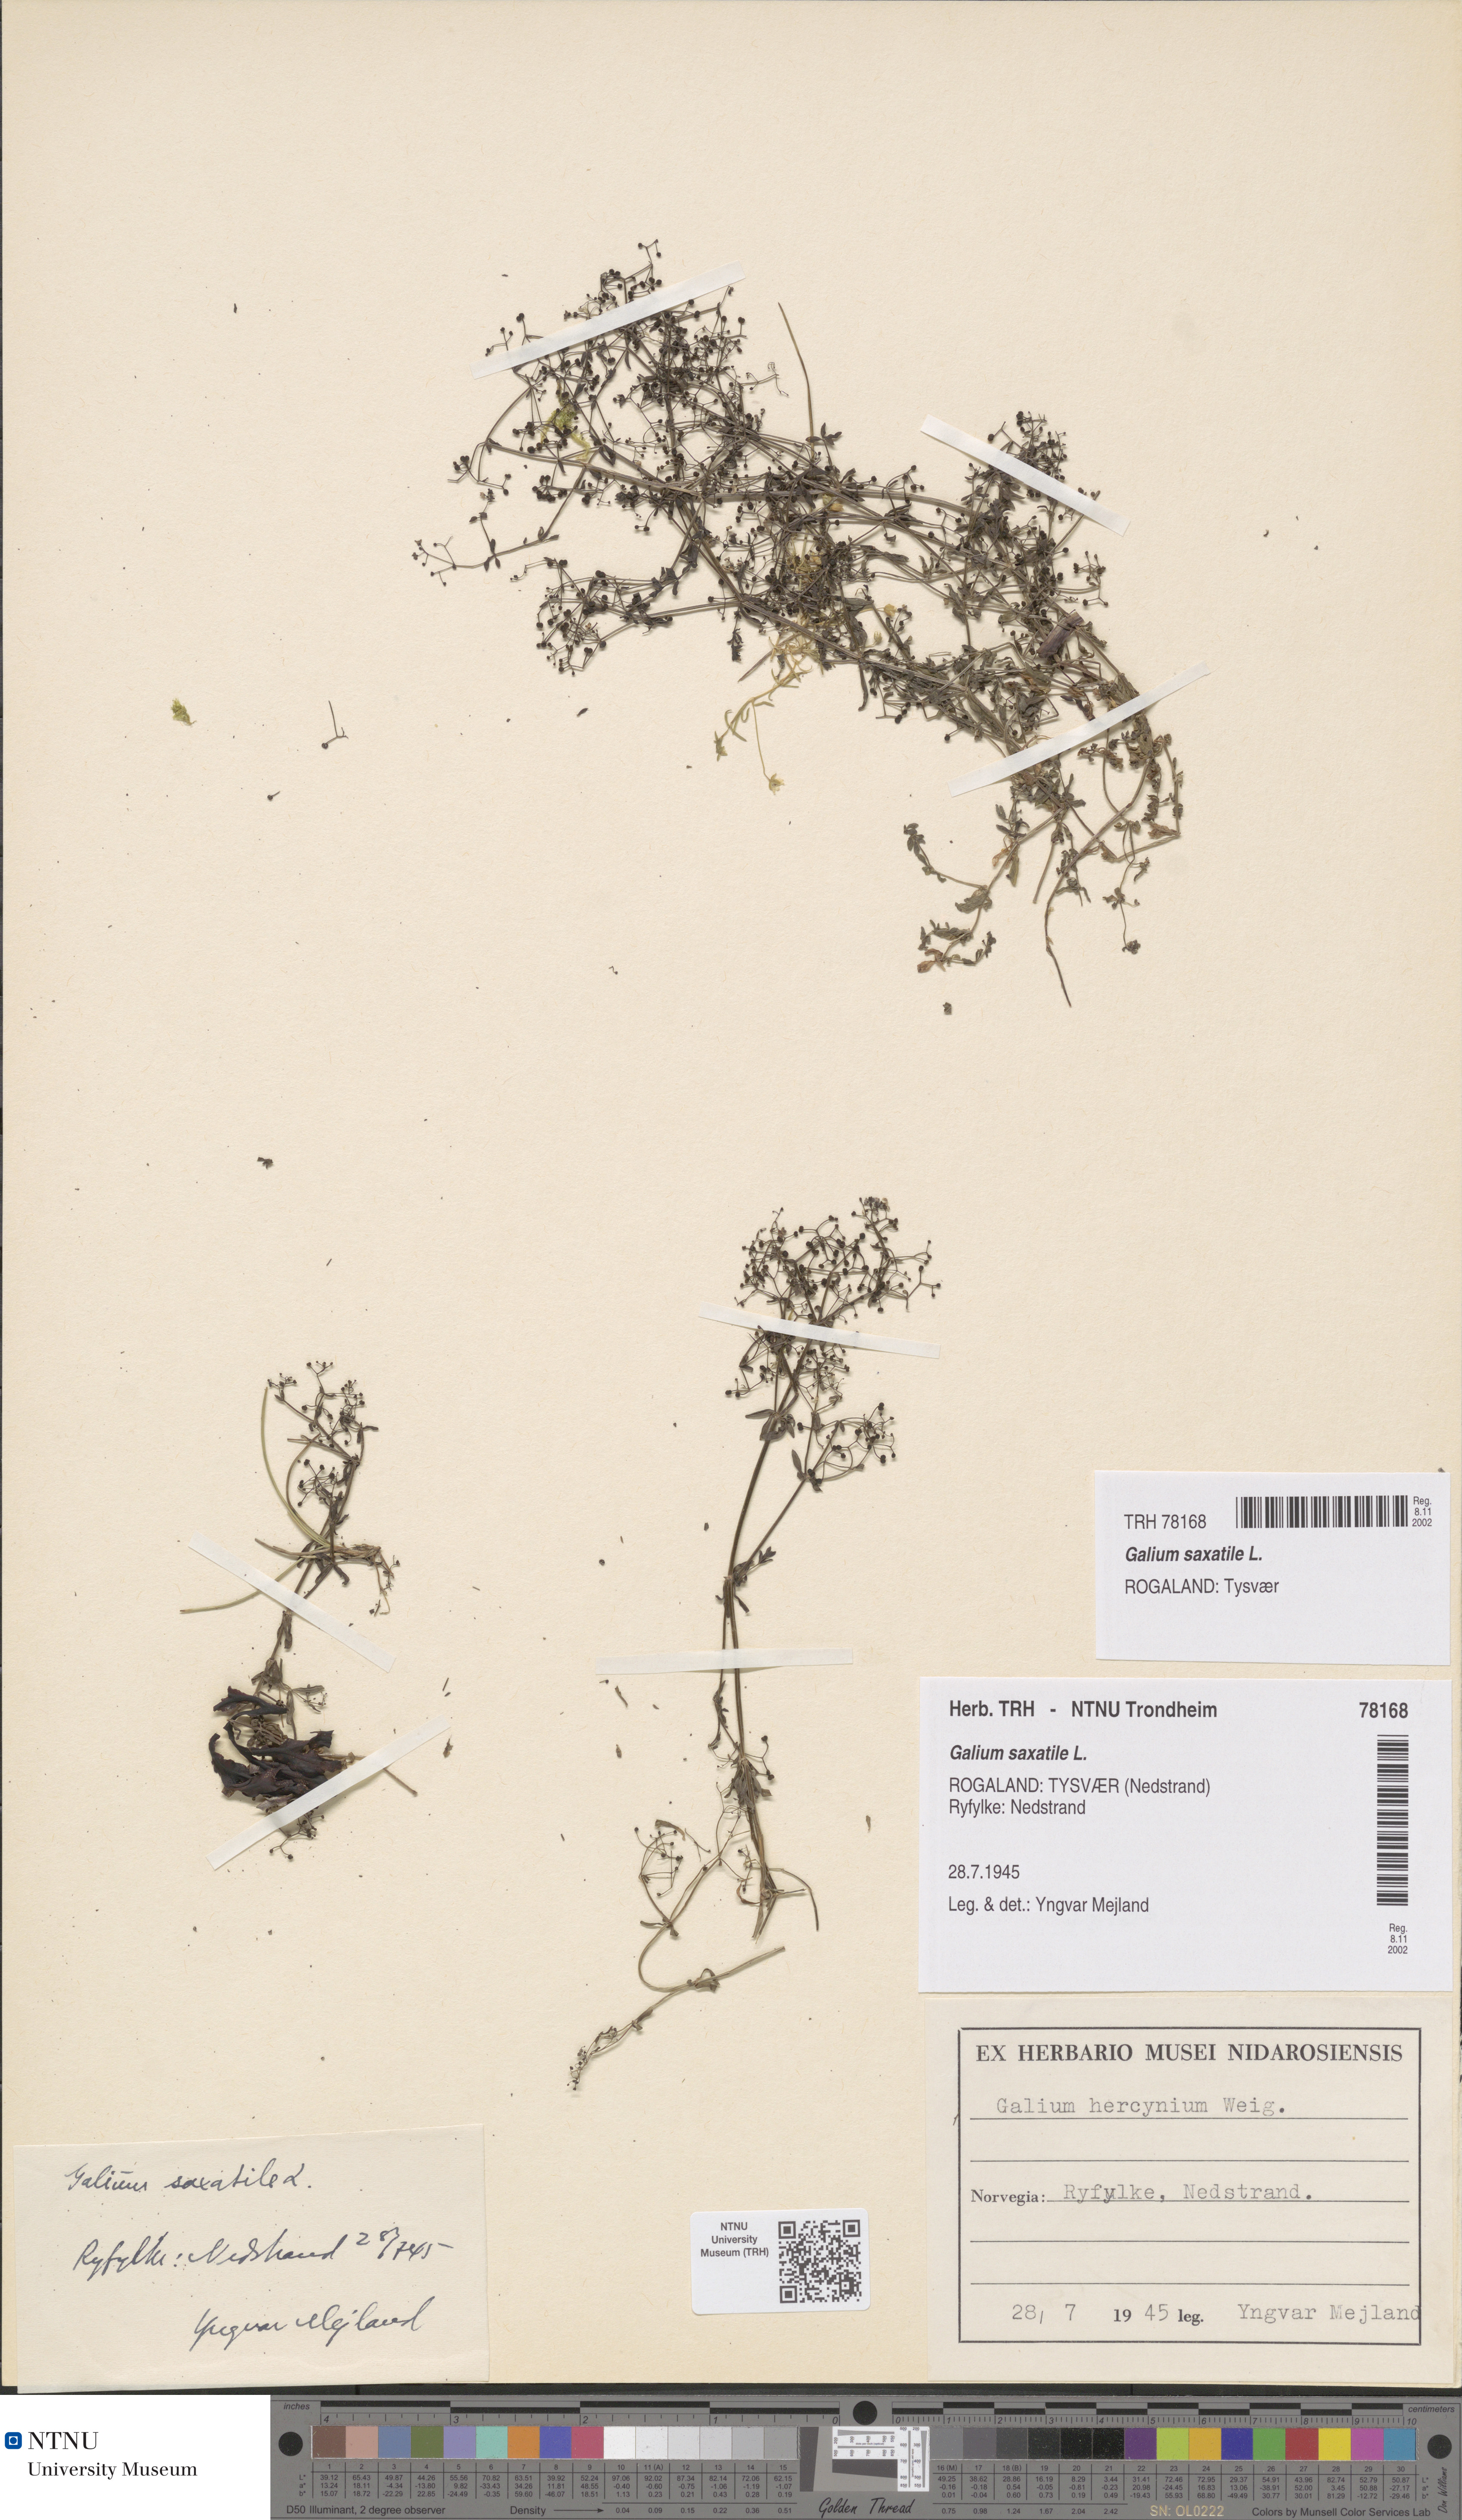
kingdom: Plantae
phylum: Tracheophyta
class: Magnoliopsida
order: Gentianales
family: Rubiaceae
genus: Galium
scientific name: Galium saxatile
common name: Heath bedstraw
